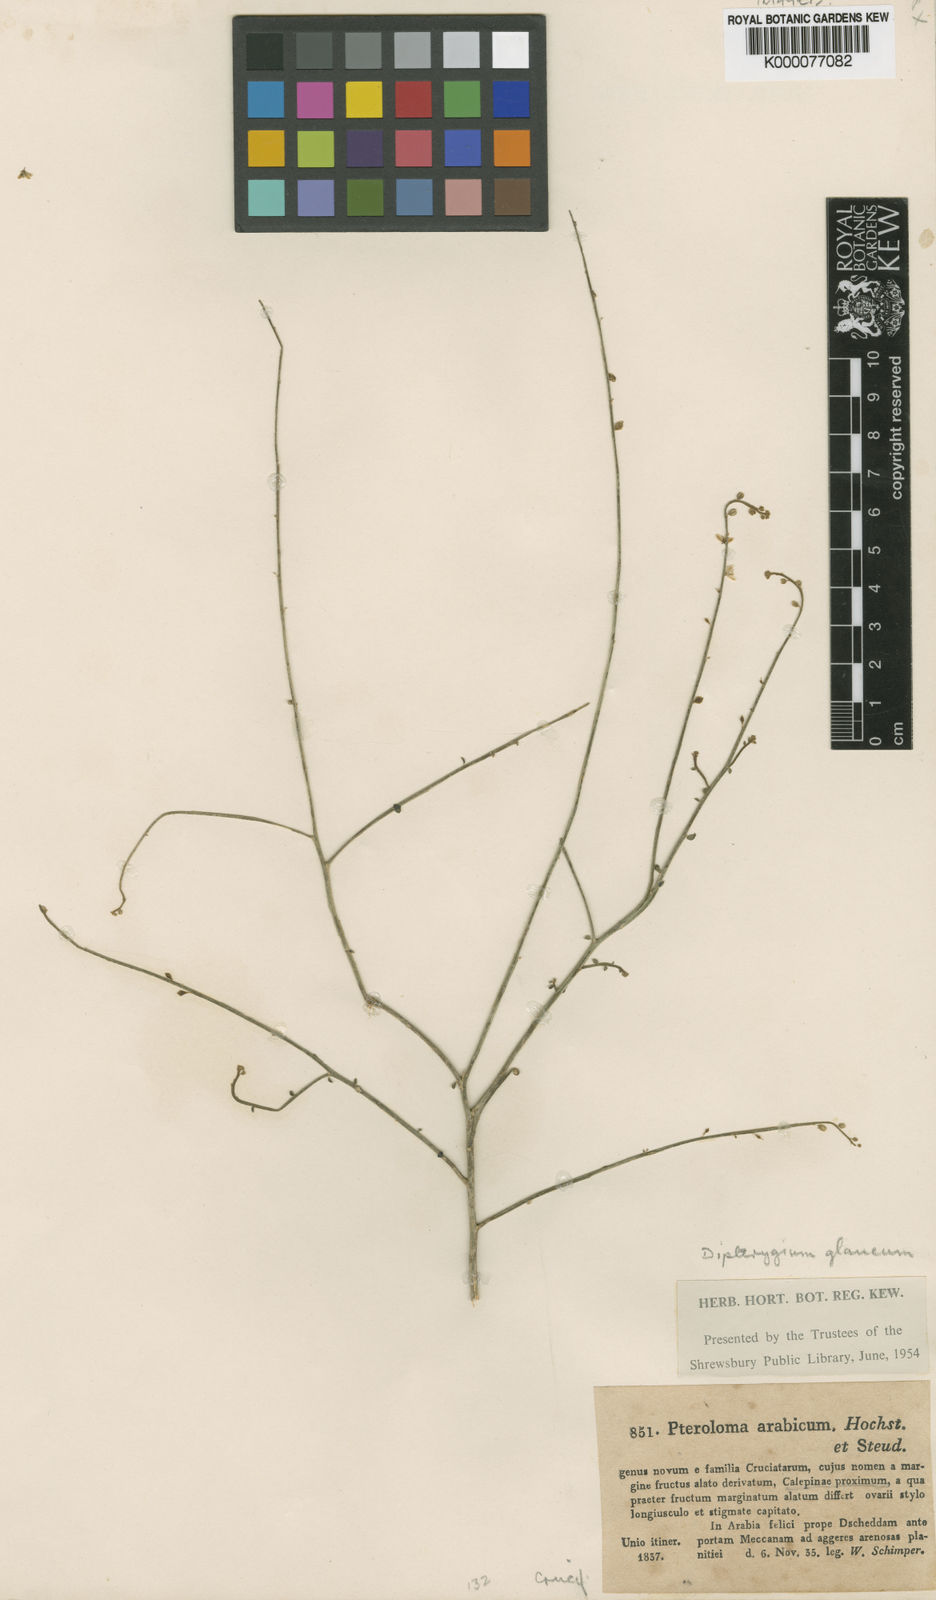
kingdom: Plantae
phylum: Tracheophyta
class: Magnoliopsida
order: Brassicales
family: Cleomaceae
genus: Dipterygium
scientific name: Dipterygium glaucum
